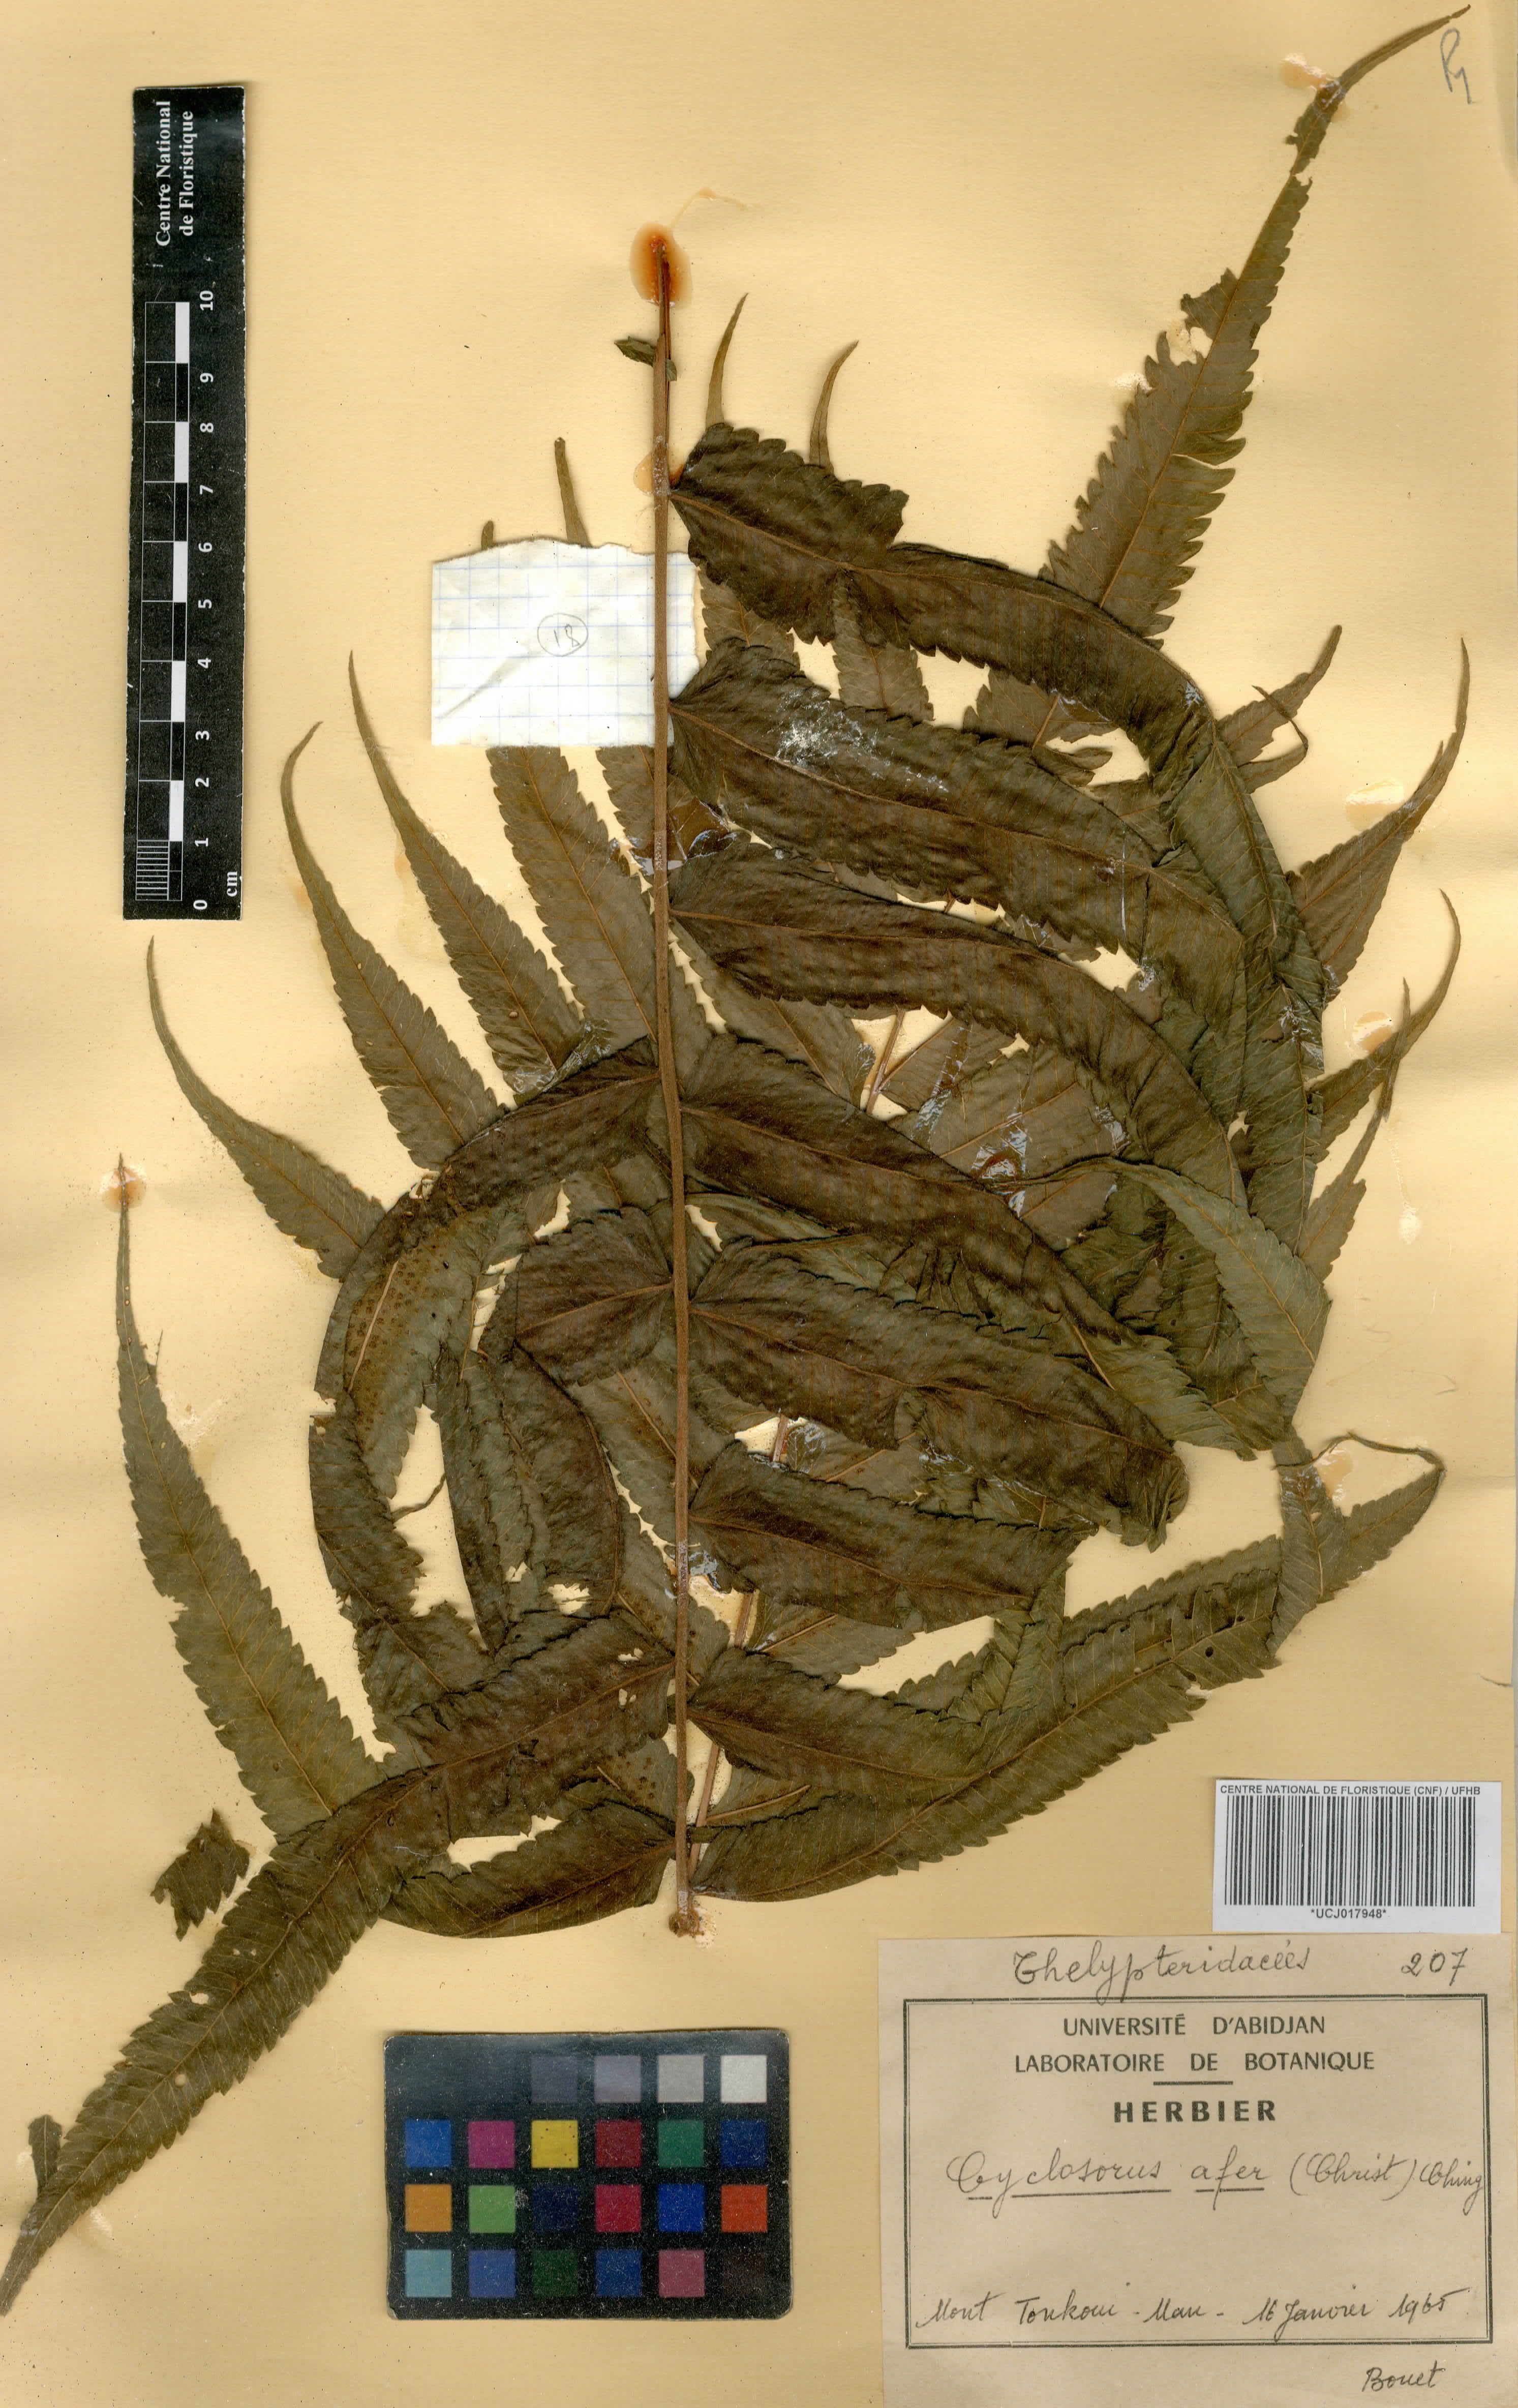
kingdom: Plantae
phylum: Tracheophyta
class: Polypodiopsida
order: Polypodiales
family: Thelypteridaceae
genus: Abacopteris
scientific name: Abacopteris afra
